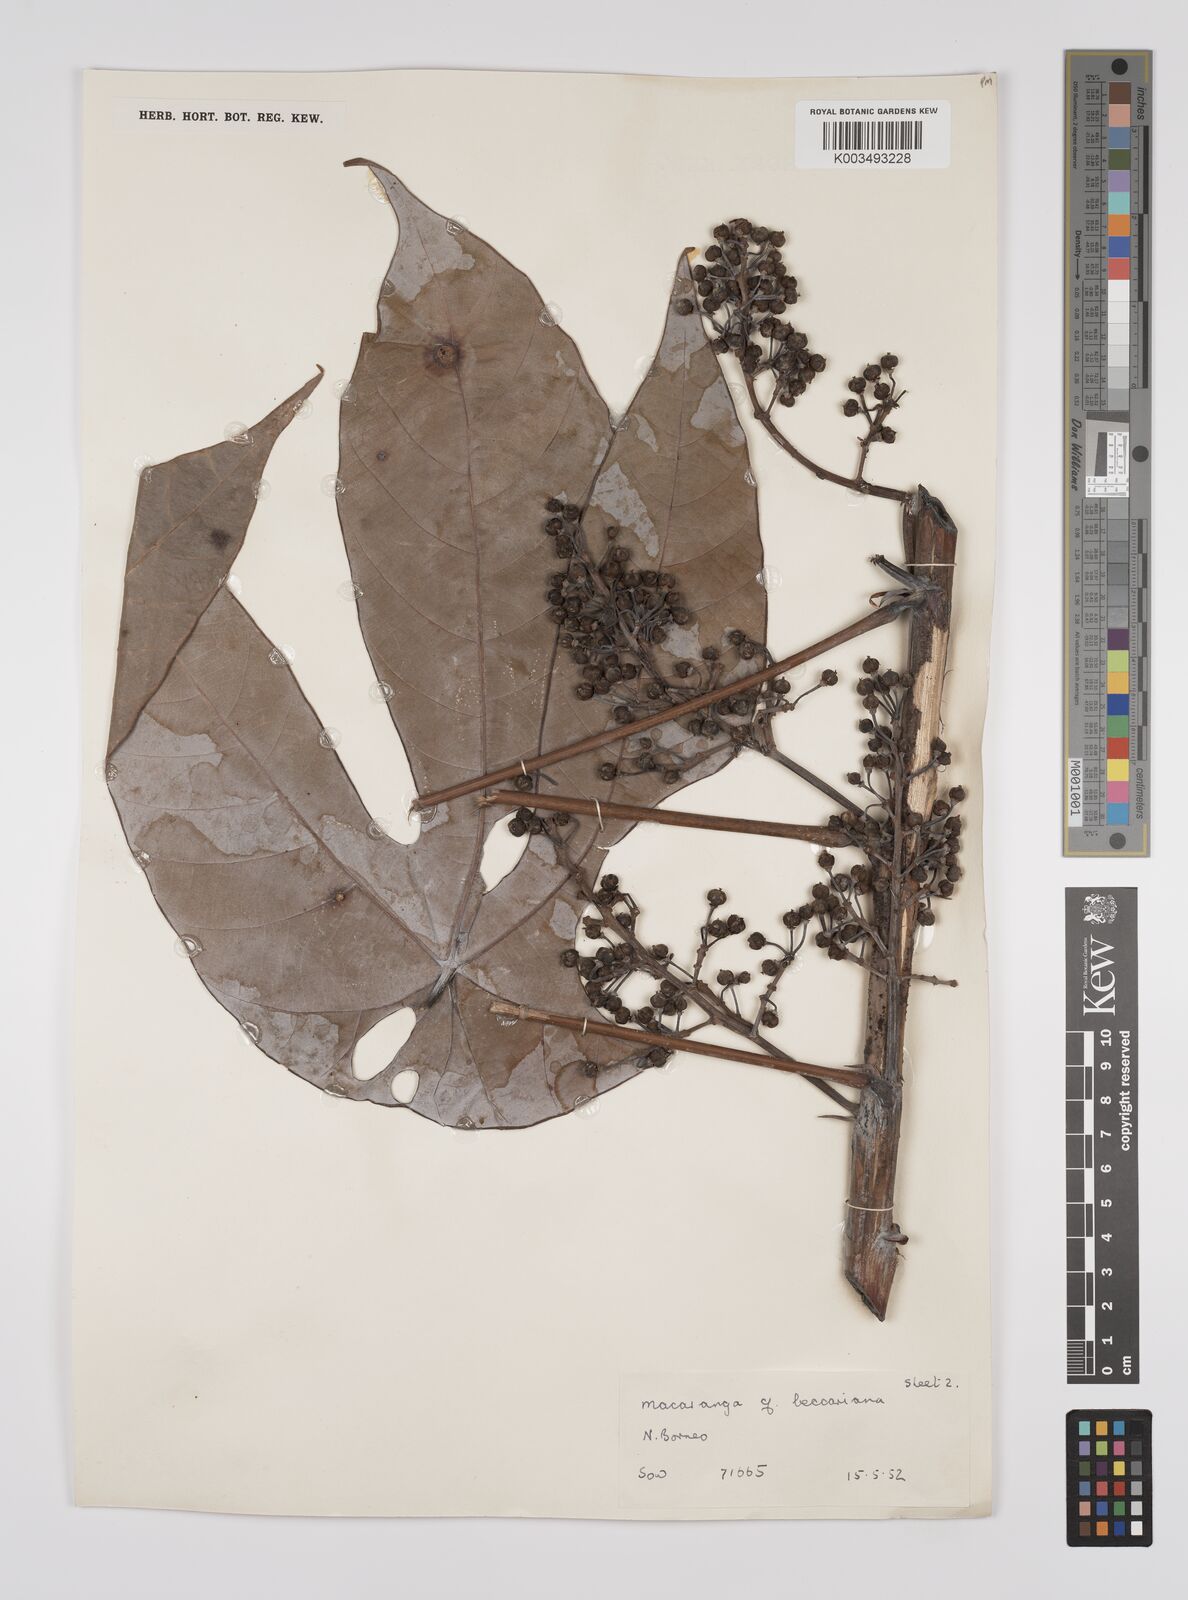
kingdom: Plantae
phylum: Tracheophyta
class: Magnoliopsida
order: Malpighiales
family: Euphorbiaceae
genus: Macaranga
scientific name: Macaranga beccariana
